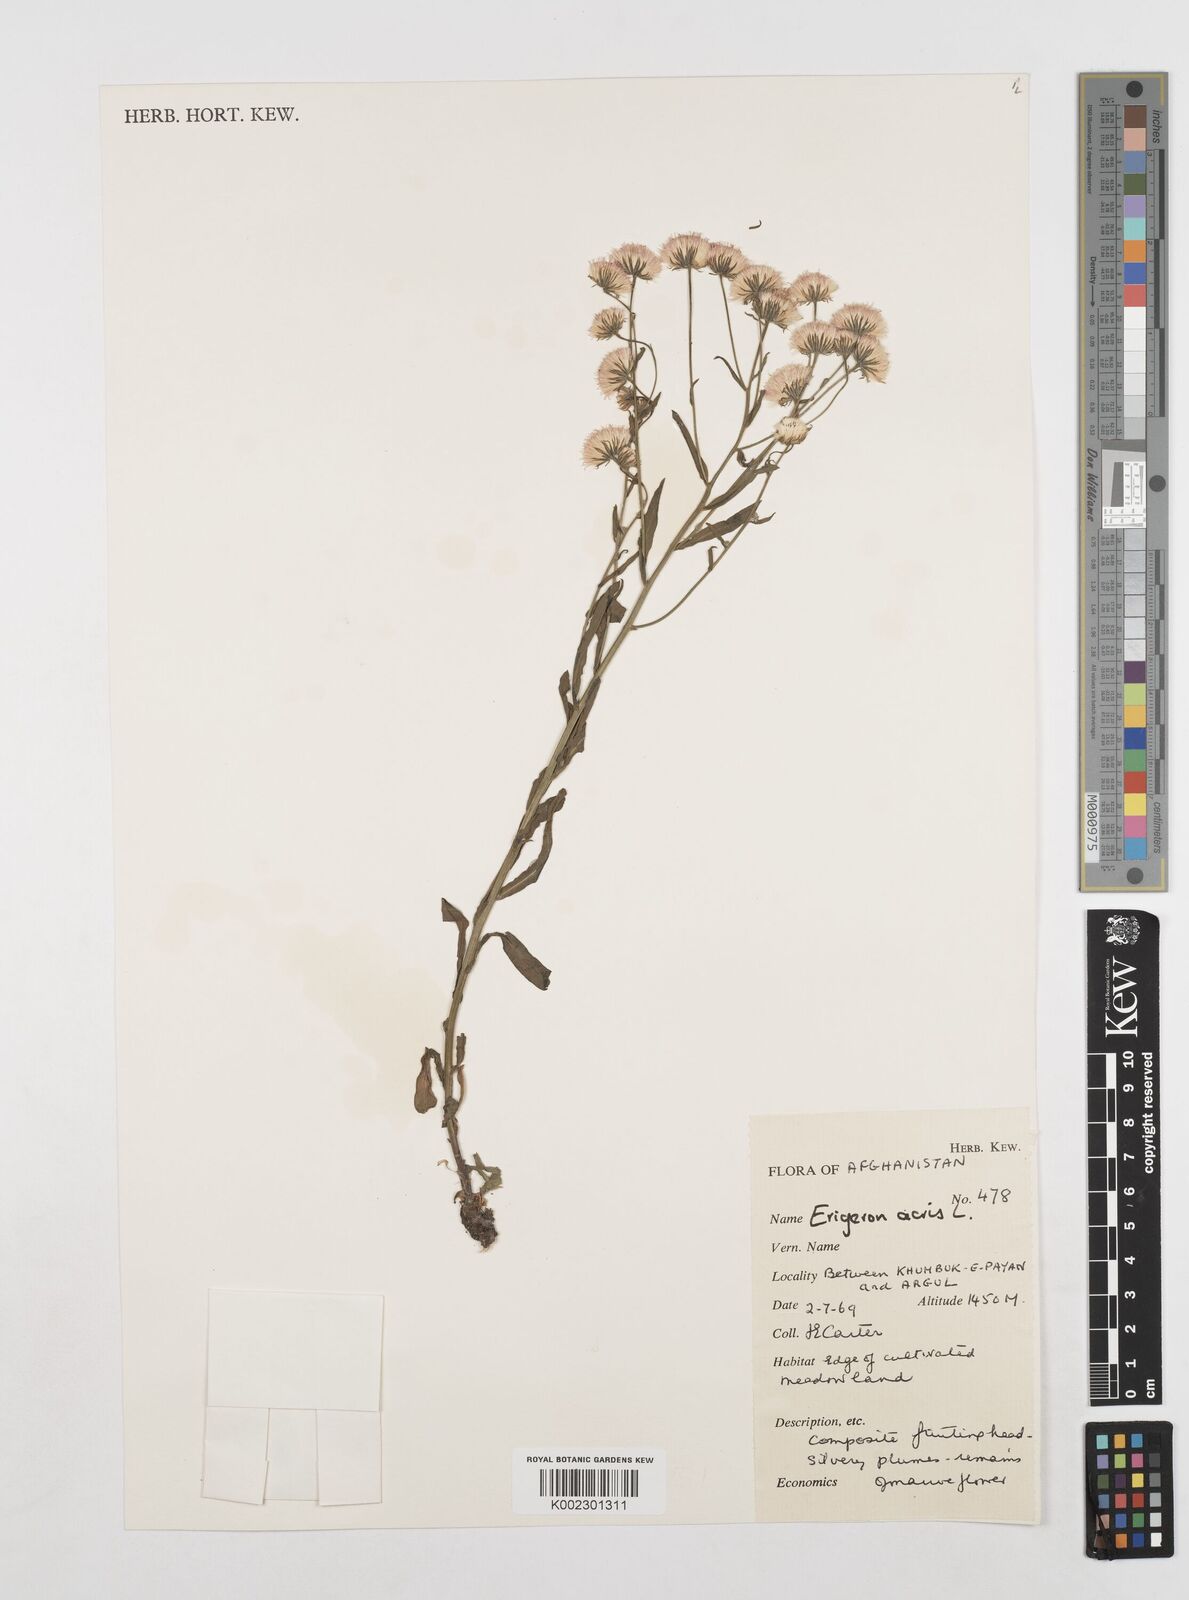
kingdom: Plantae
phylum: Tracheophyta
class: Magnoliopsida
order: Asterales
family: Asteraceae
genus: Erigeron
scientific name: Erigeron acris
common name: Blue fleabane
